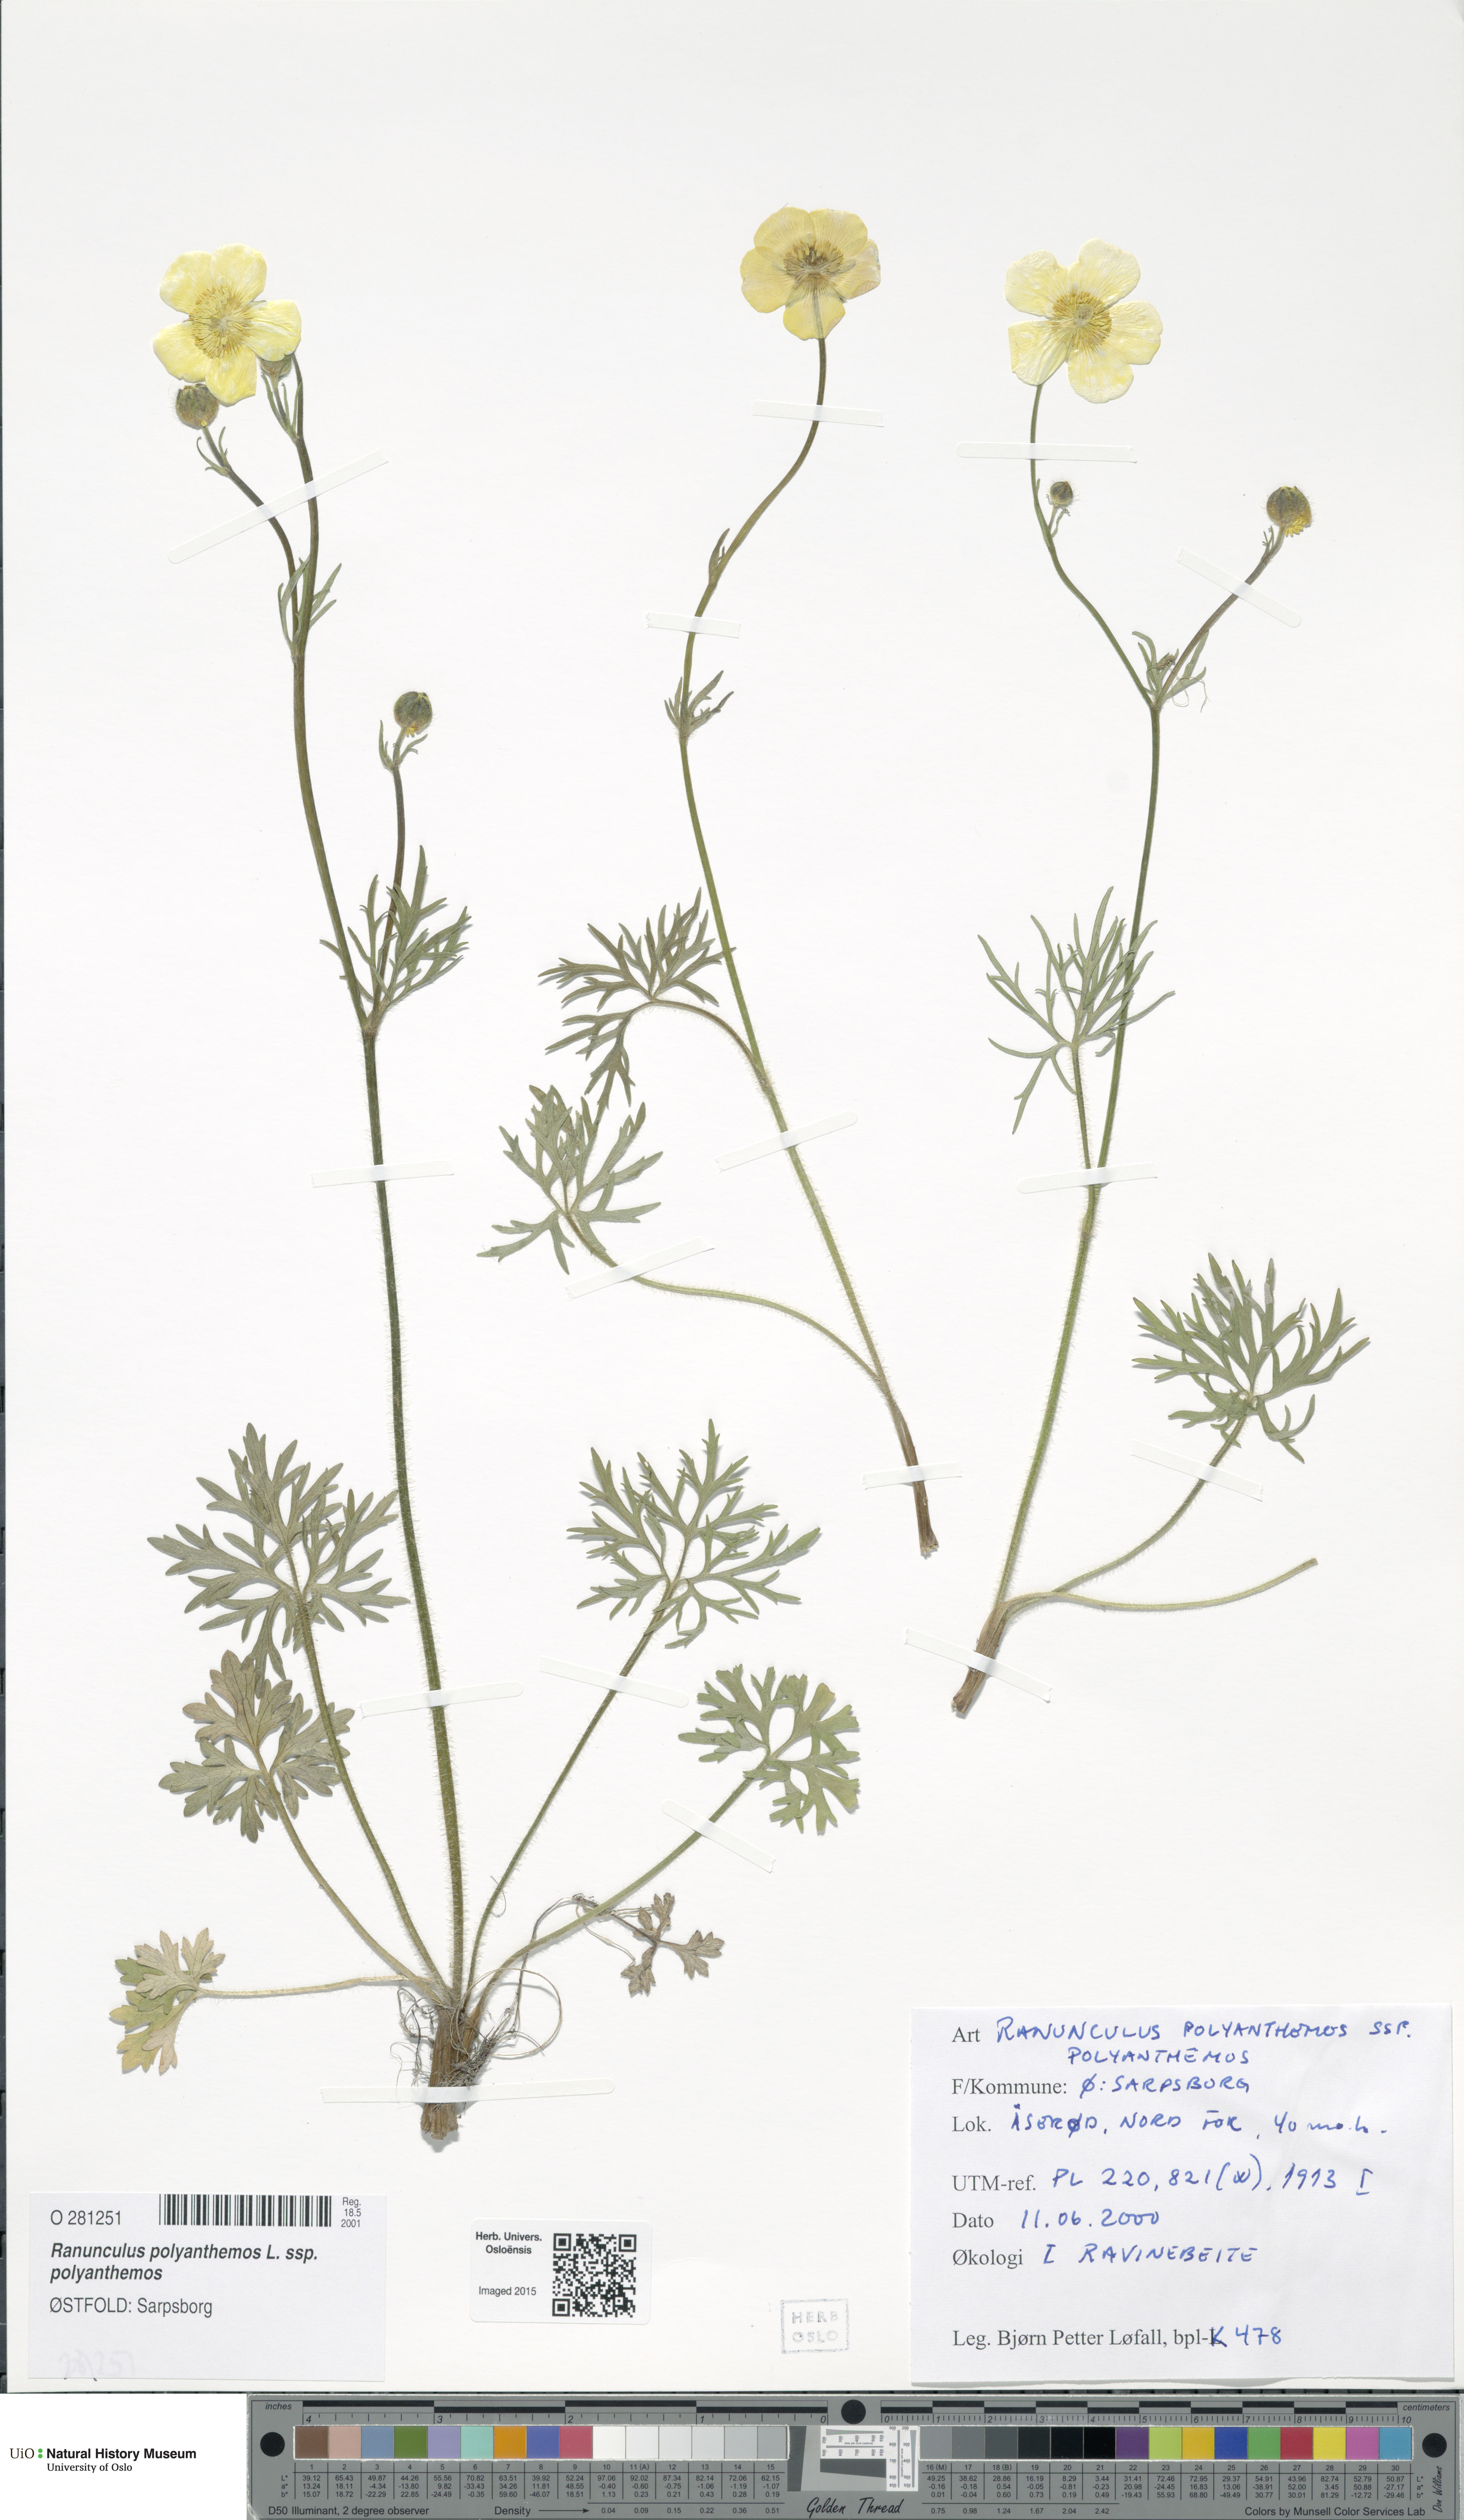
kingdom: Plantae
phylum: Tracheophyta
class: Magnoliopsida
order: Ranunculales
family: Ranunculaceae
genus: Ranunculus
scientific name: Ranunculus polyanthemos
